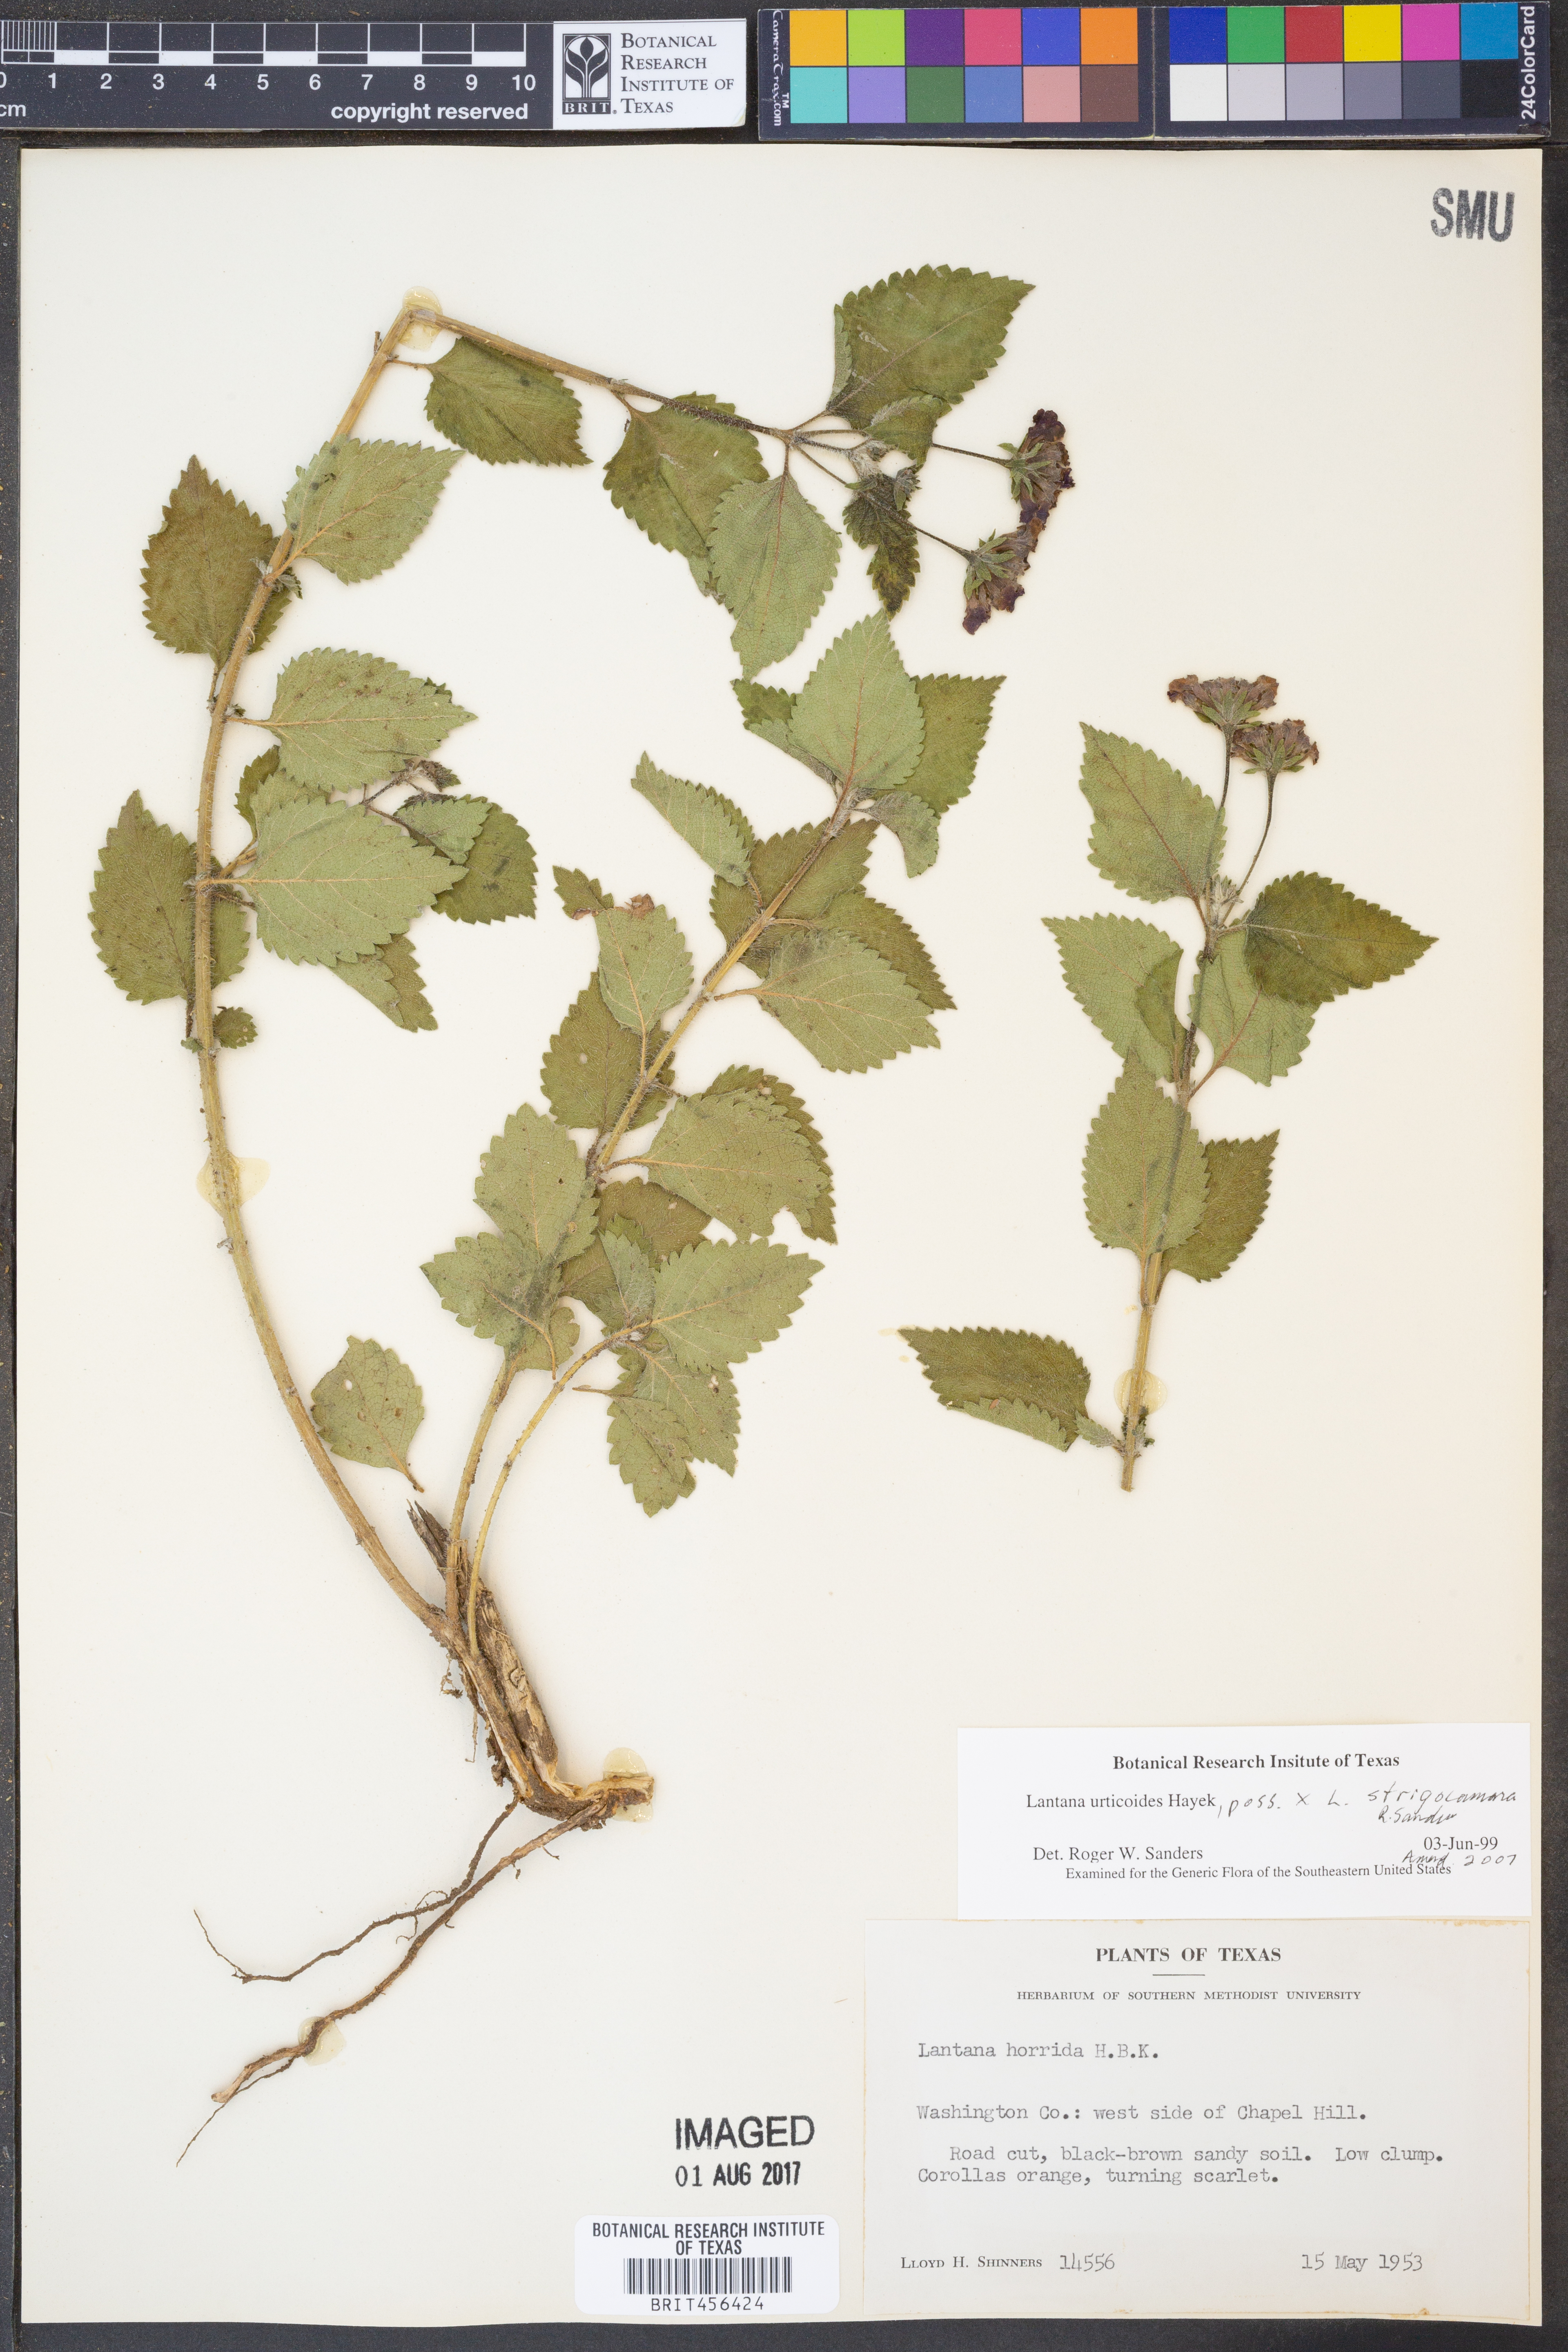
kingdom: Plantae
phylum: Tracheophyta
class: Magnoliopsida
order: Lamiales
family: Verbenaceae
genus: Lantana
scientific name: Lantana urticoides
